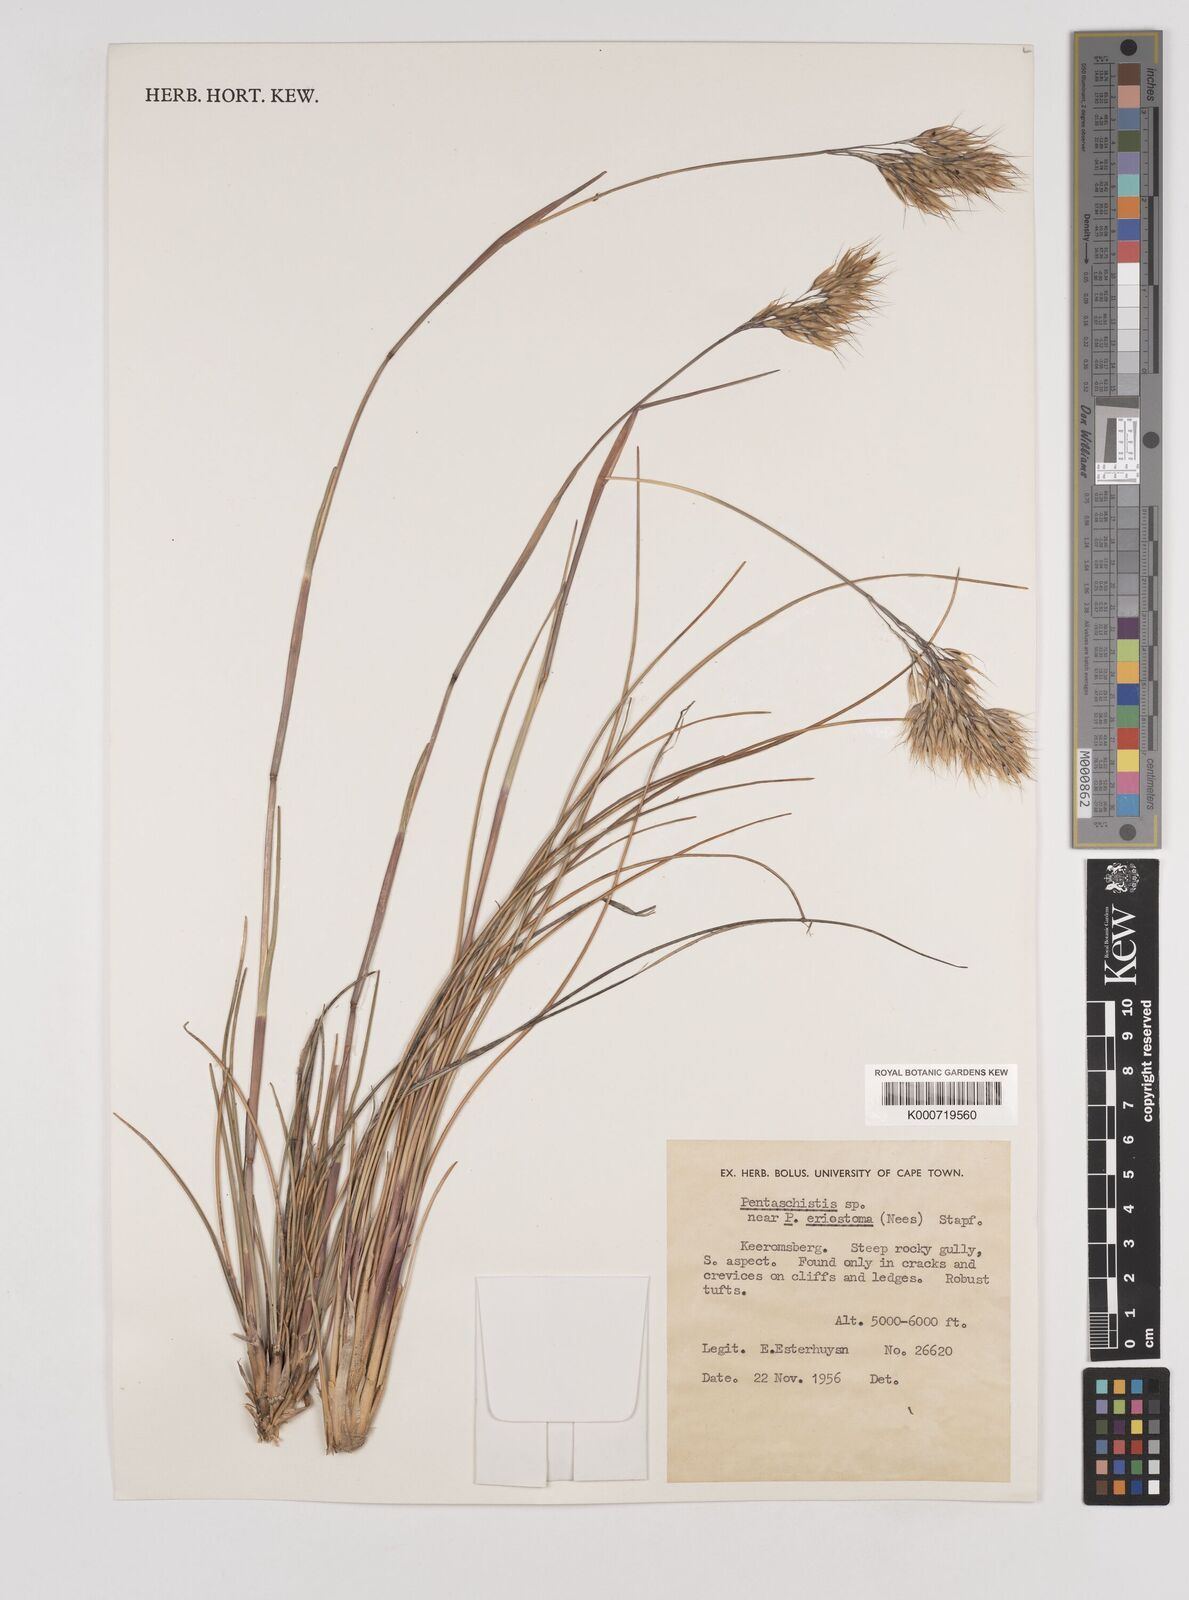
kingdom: Plantae
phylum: Tracheophyta
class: Liliopsida
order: Poales
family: Poaceae
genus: Pentameris
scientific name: Pentameris pyrophila
